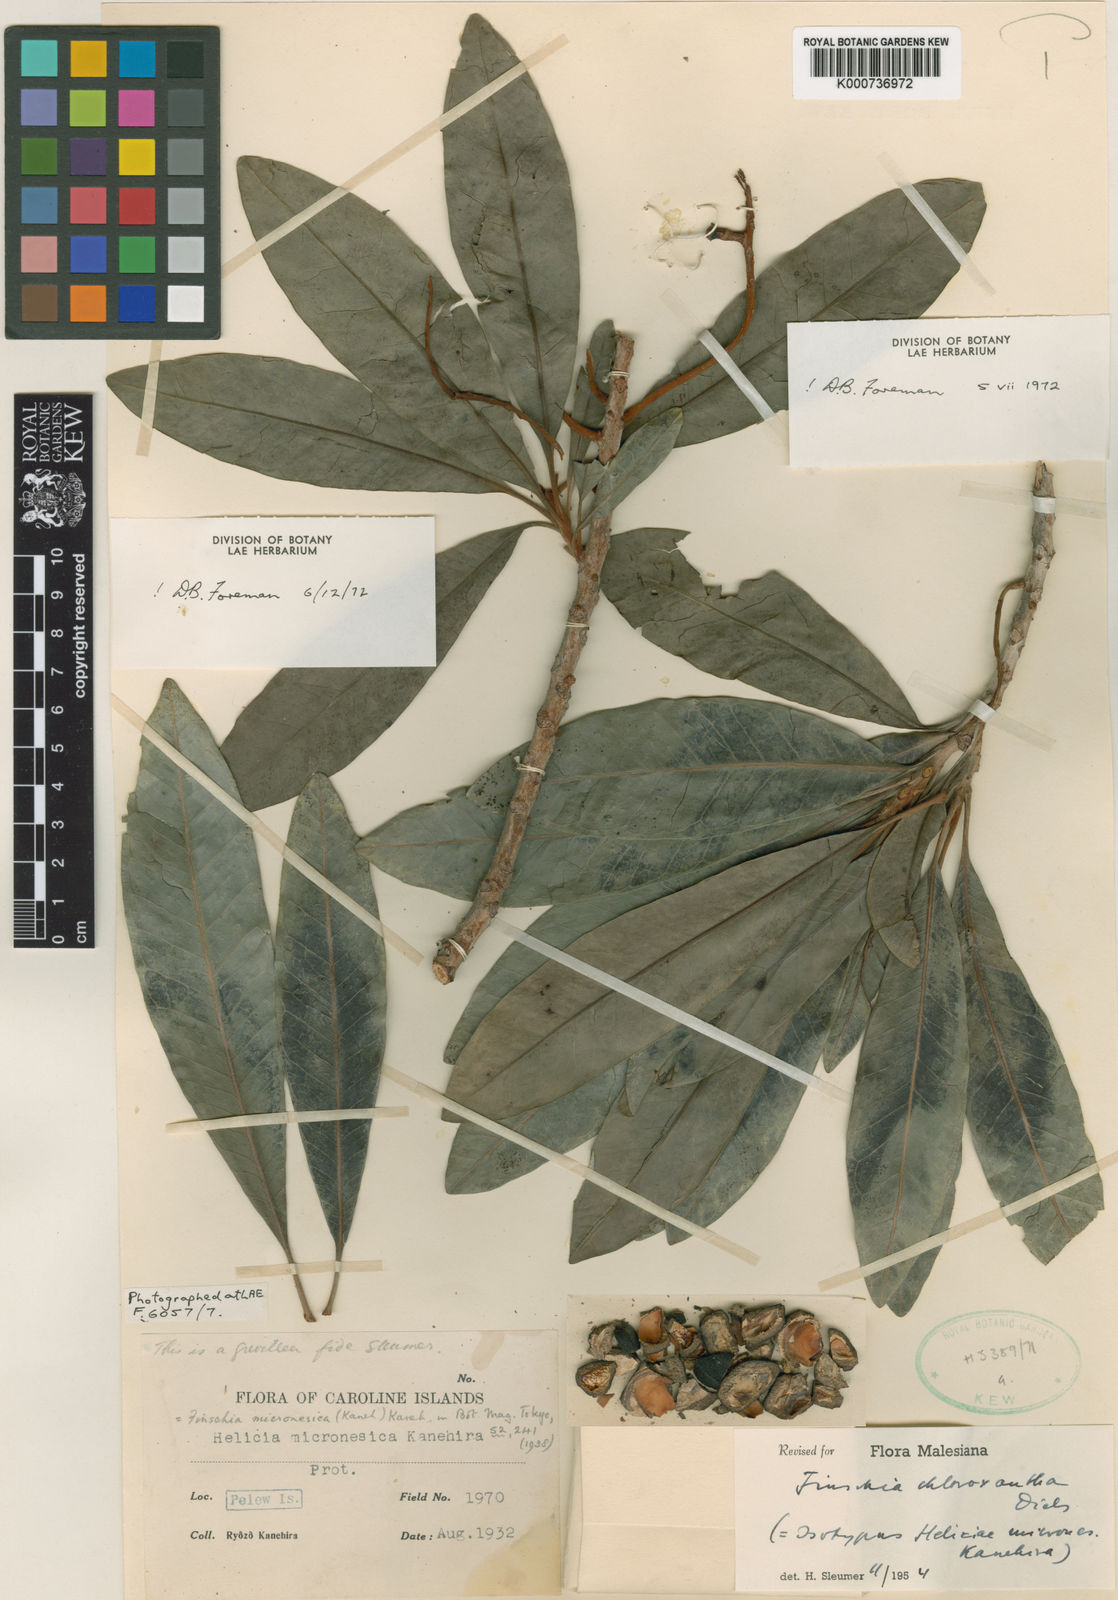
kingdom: Plantae
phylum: Tracheophyta
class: Magnoliopsida
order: Proteales
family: Proteaceae
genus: Finschia
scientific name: Finschia chloroxantha
